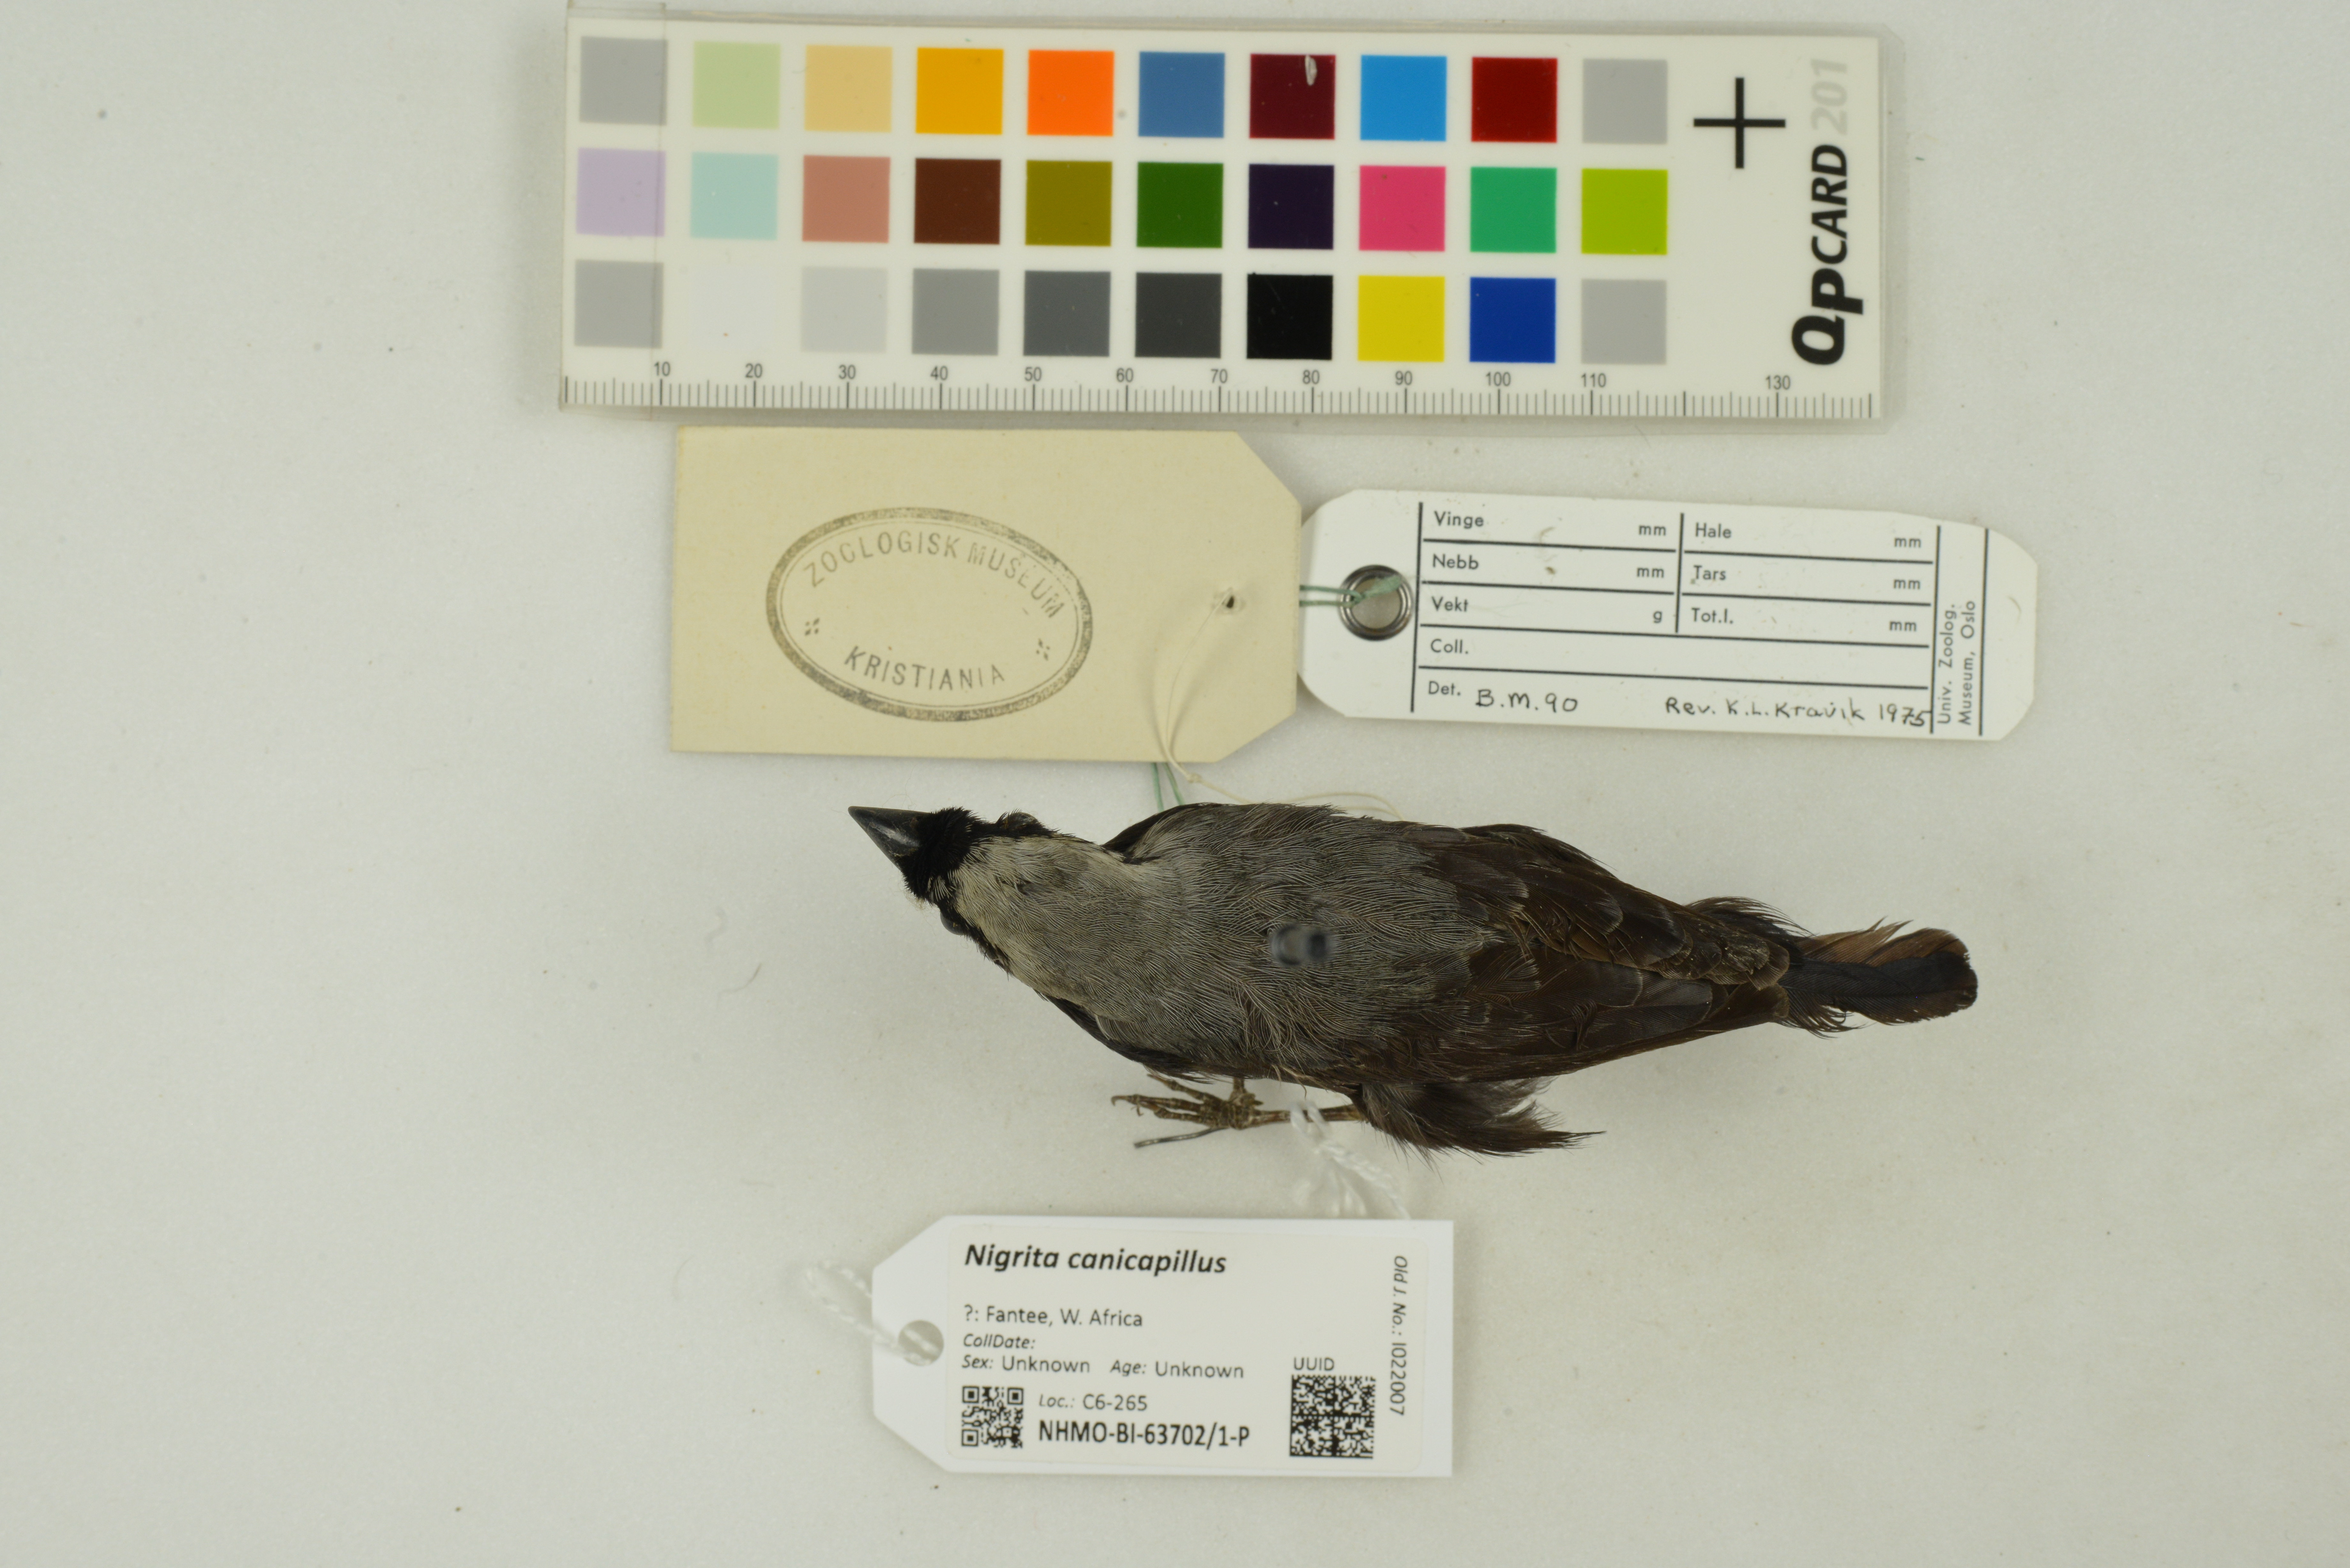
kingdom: Animalia
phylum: Chordata
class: Aves
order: Passeriformes
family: Estrildidae
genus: Nigrita
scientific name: Nigrita canicapillus
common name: Grey-headed nigrita
